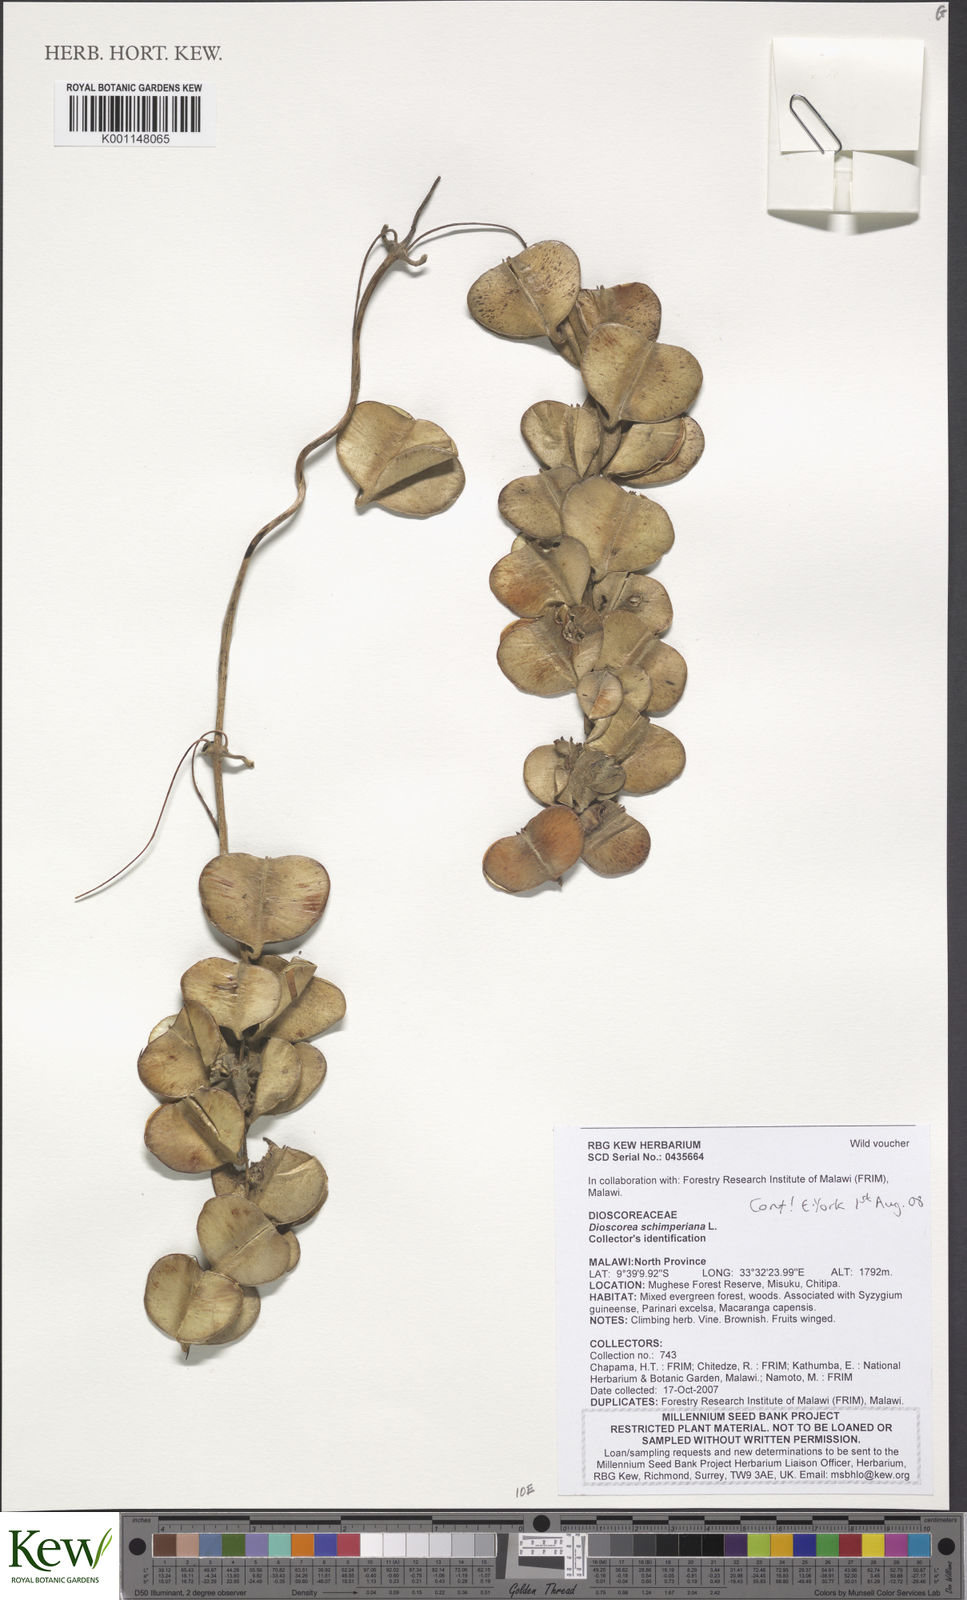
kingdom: Plantae
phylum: Tracheophyta
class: Liliopsida
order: Dioscoreales
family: Dioscoreaceae
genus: Dioscorea
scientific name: Dioscorea schimperiana
